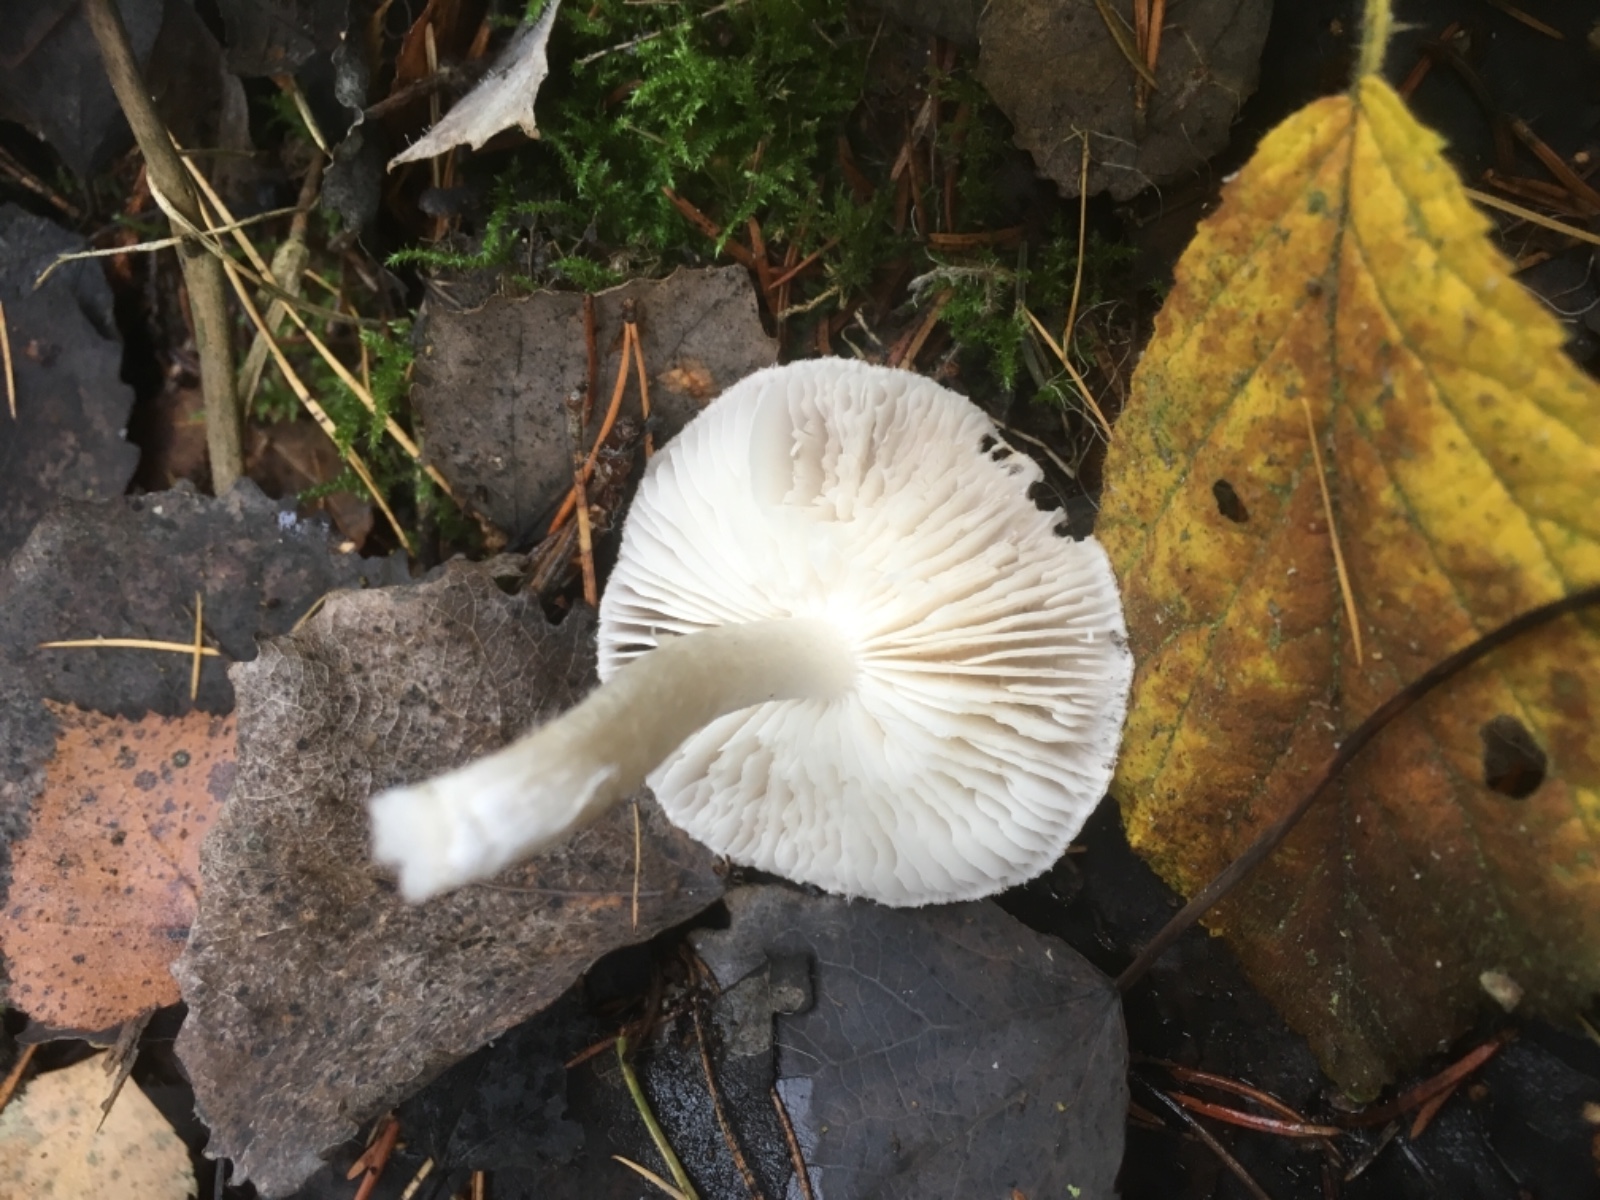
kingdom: Fungi
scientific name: Fungi
